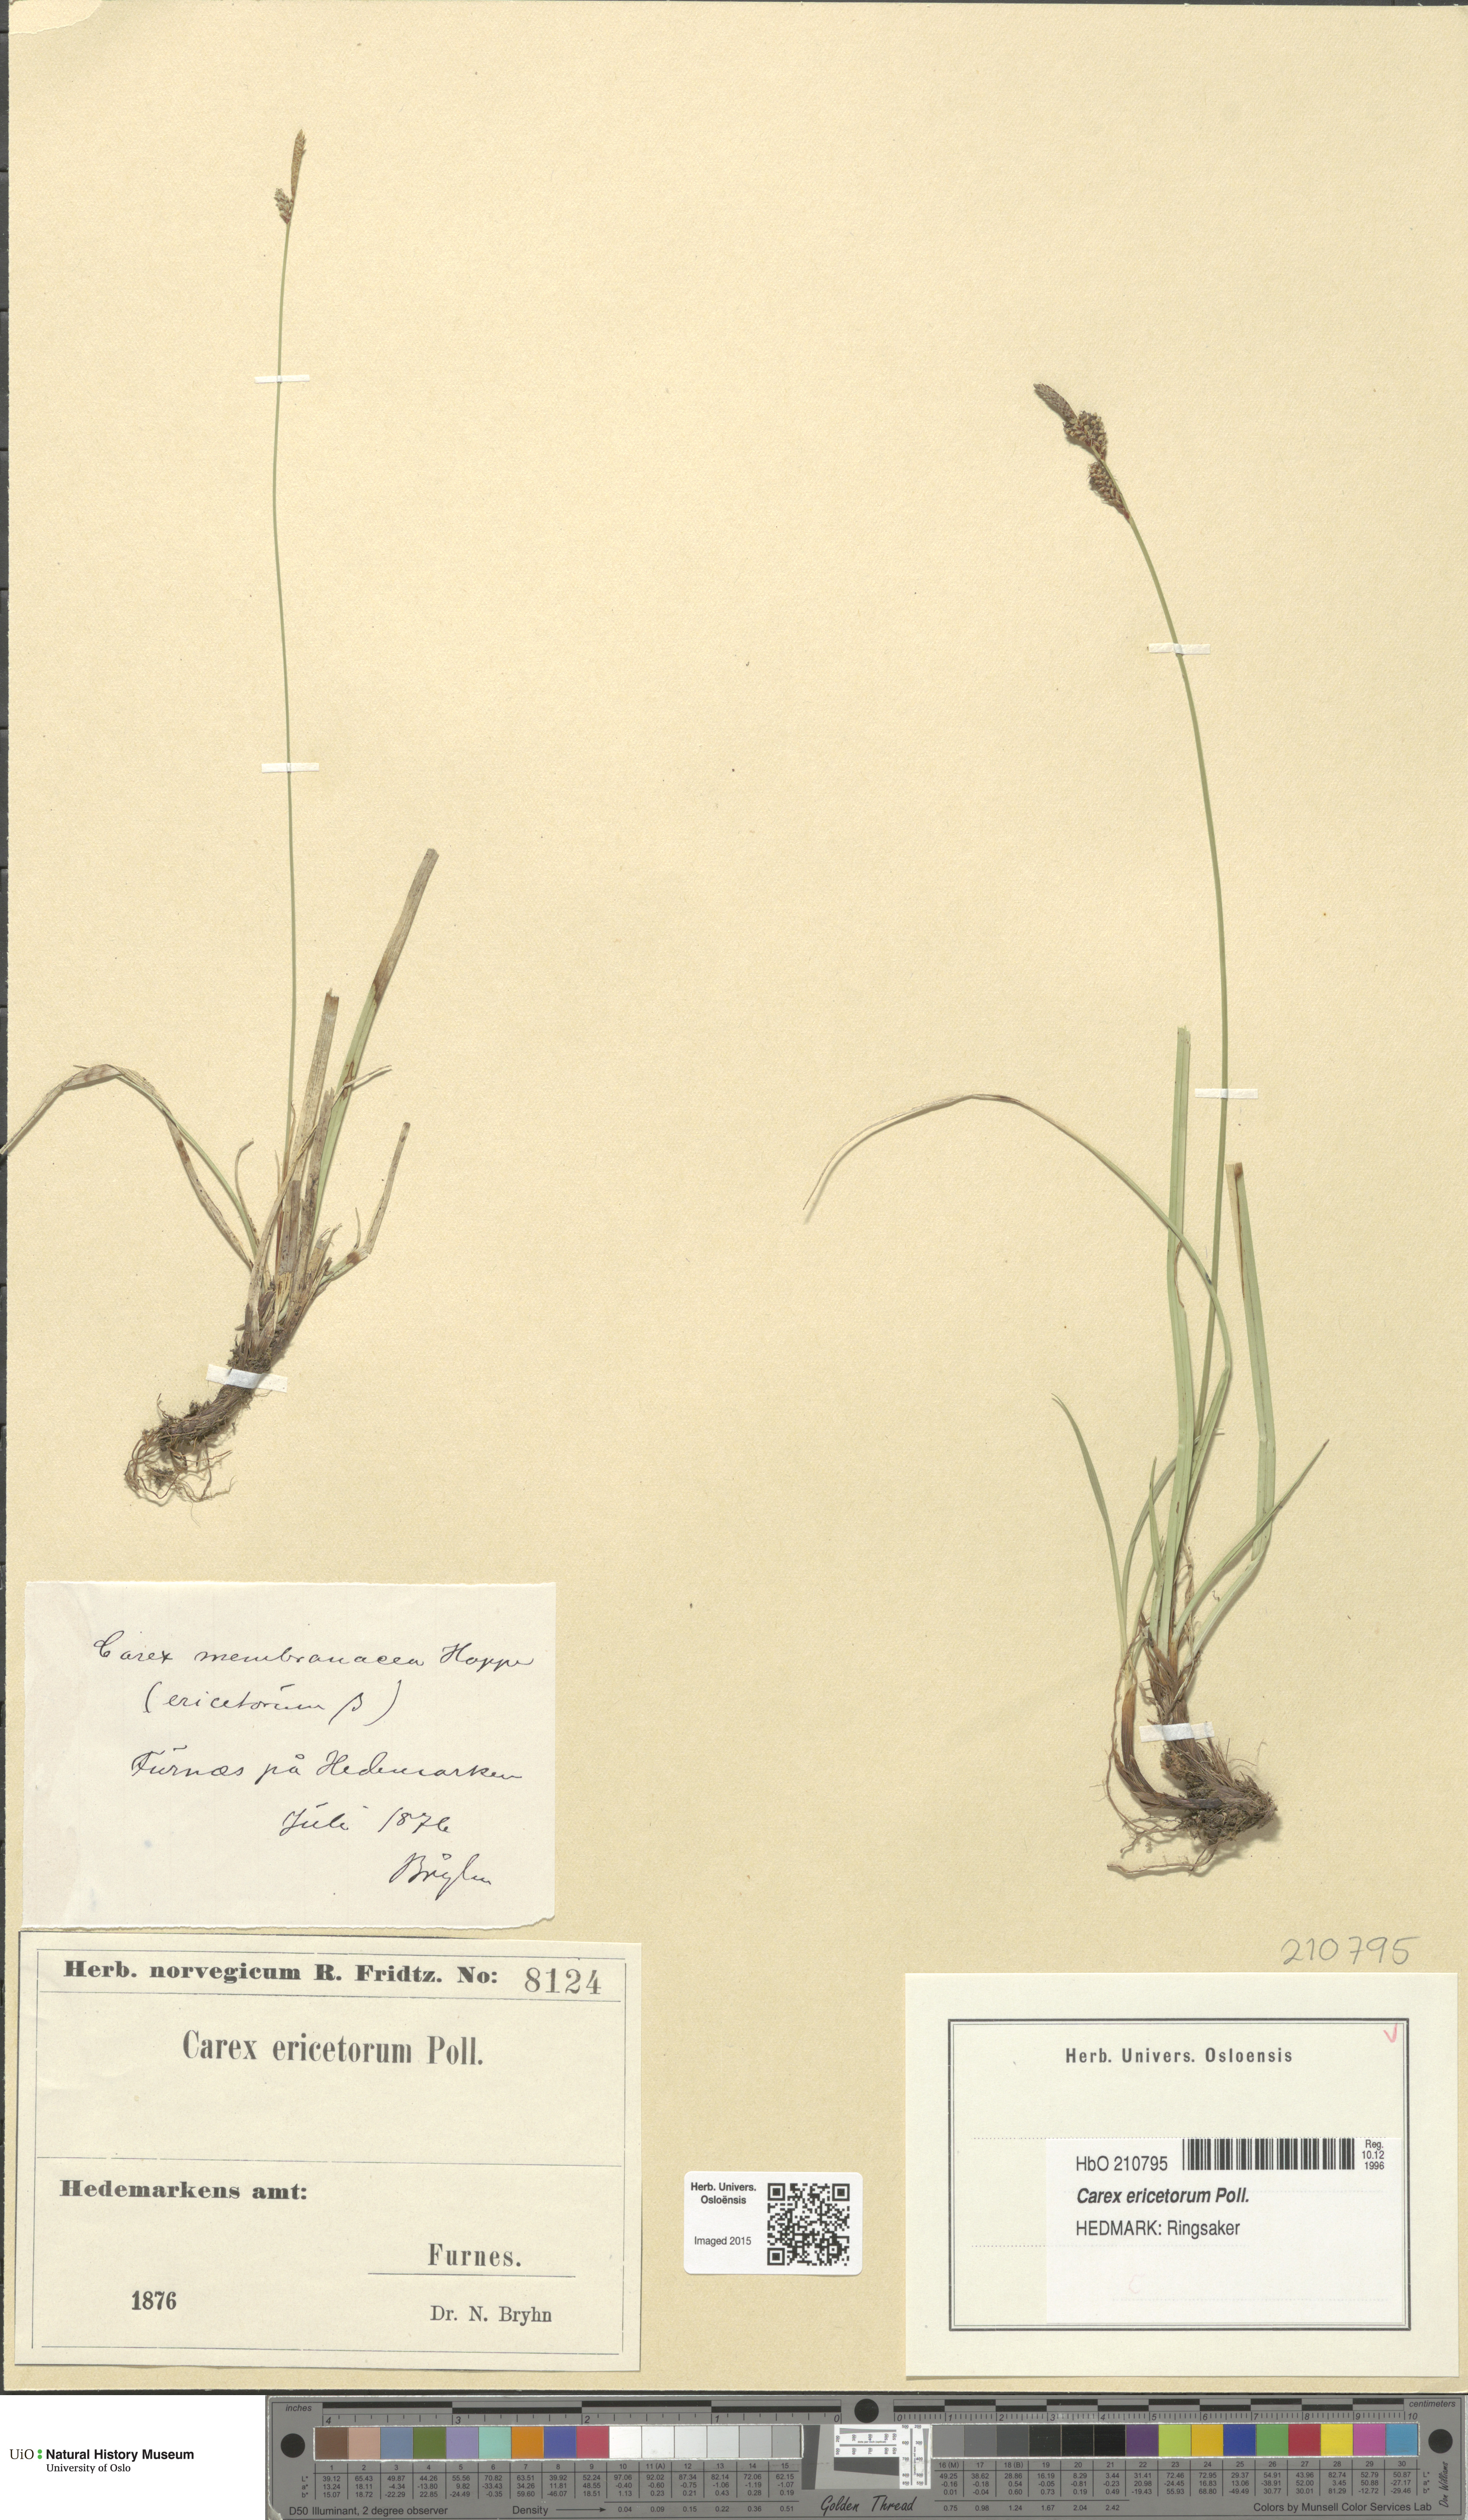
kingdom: Plantae
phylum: Tracheophyta
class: Liliopsida
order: Poales
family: Cyperaceae
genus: Carex
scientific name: Carex ericetorum
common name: Rare spring-sedge
